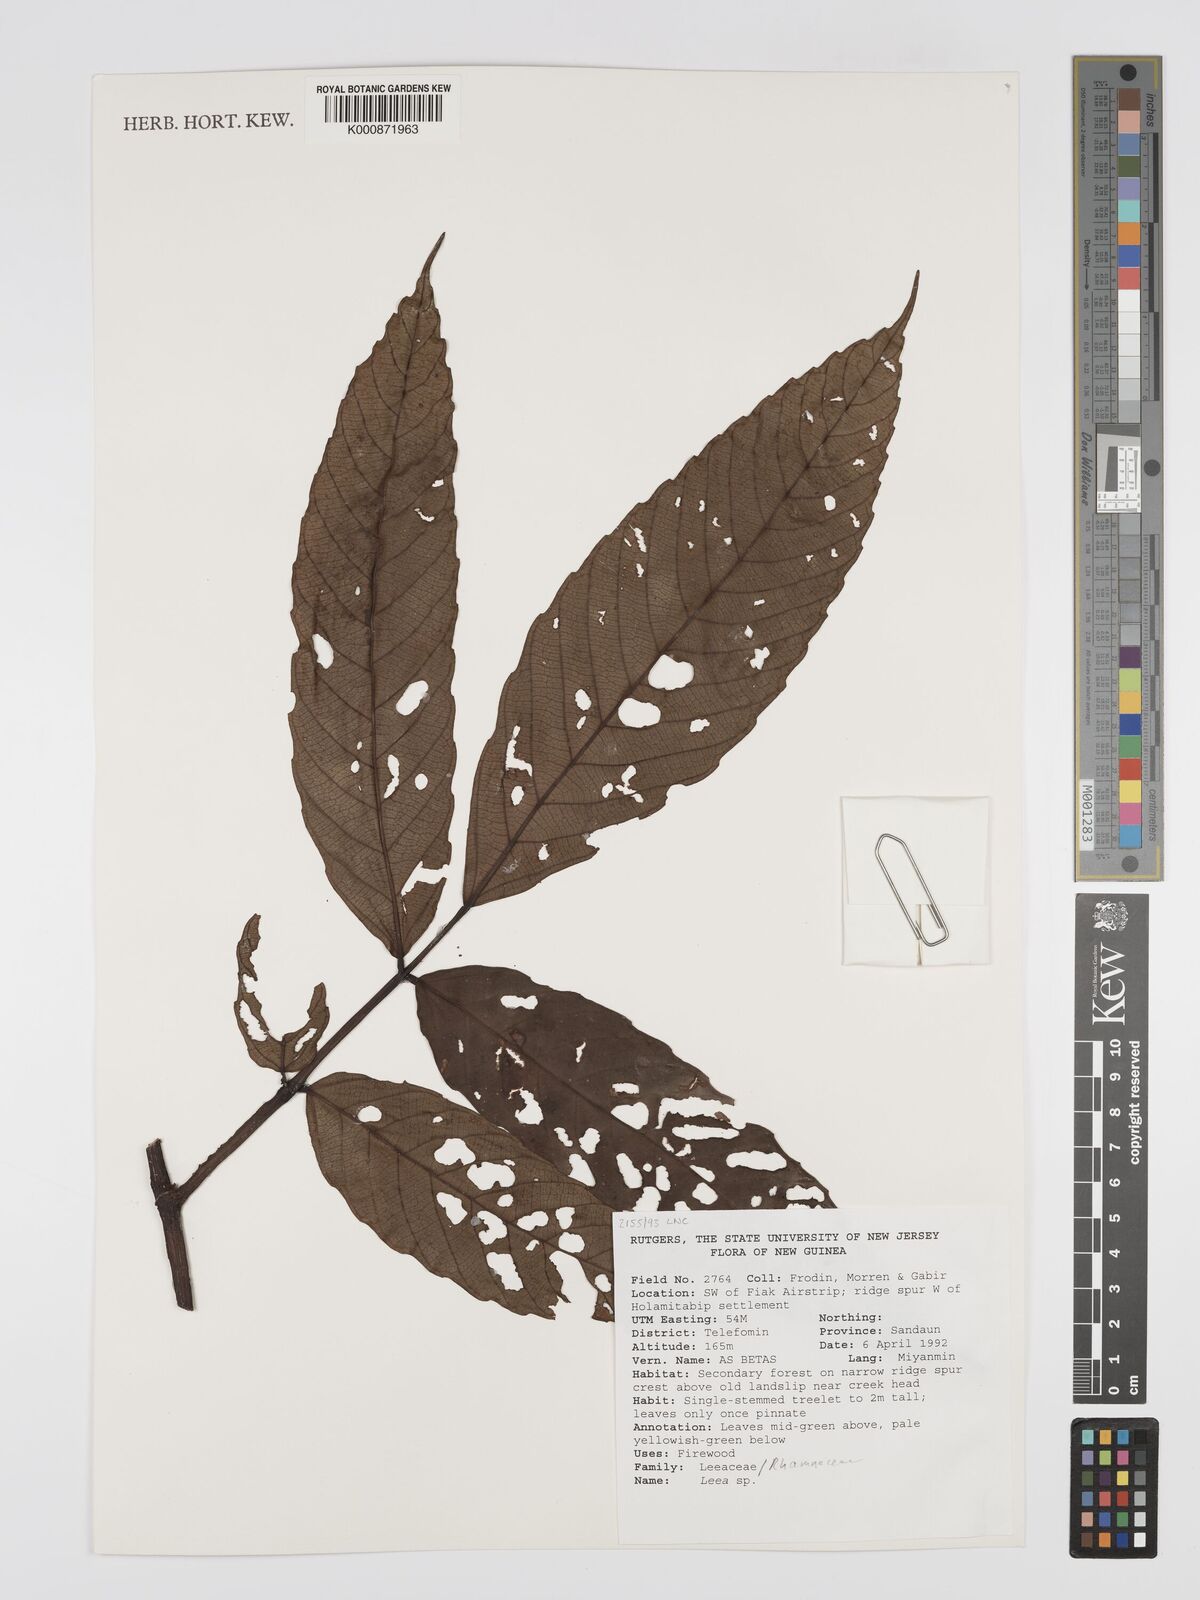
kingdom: Plantae
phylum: Tracheophyta
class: Magnoliopsida
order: Vitales
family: Vitaceae
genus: Leea
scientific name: Leea
